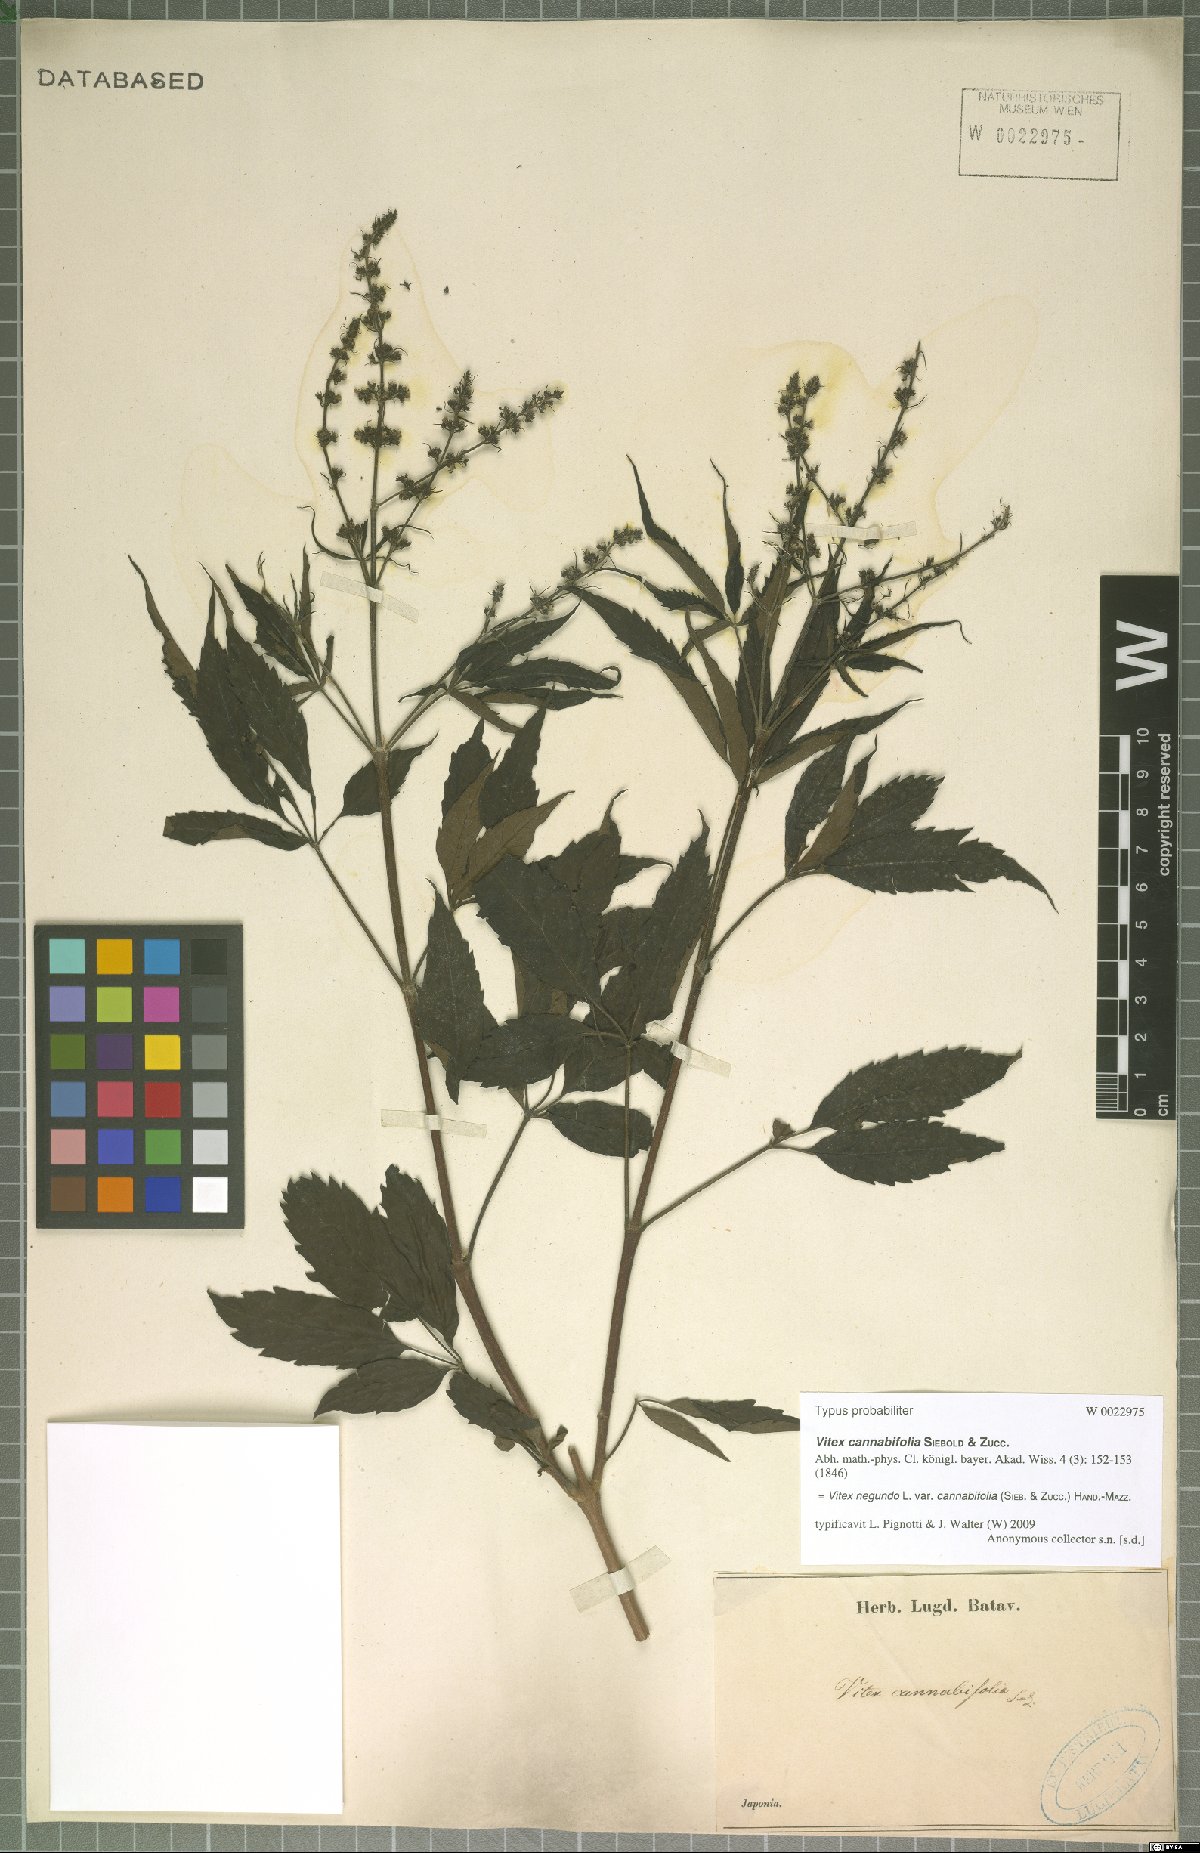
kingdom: Plantae
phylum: Tracheophyta
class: Magnoliopsida
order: Lamiales
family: Lamiaceae
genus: Vitex
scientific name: Vitex negundo
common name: Chinese chastetree
